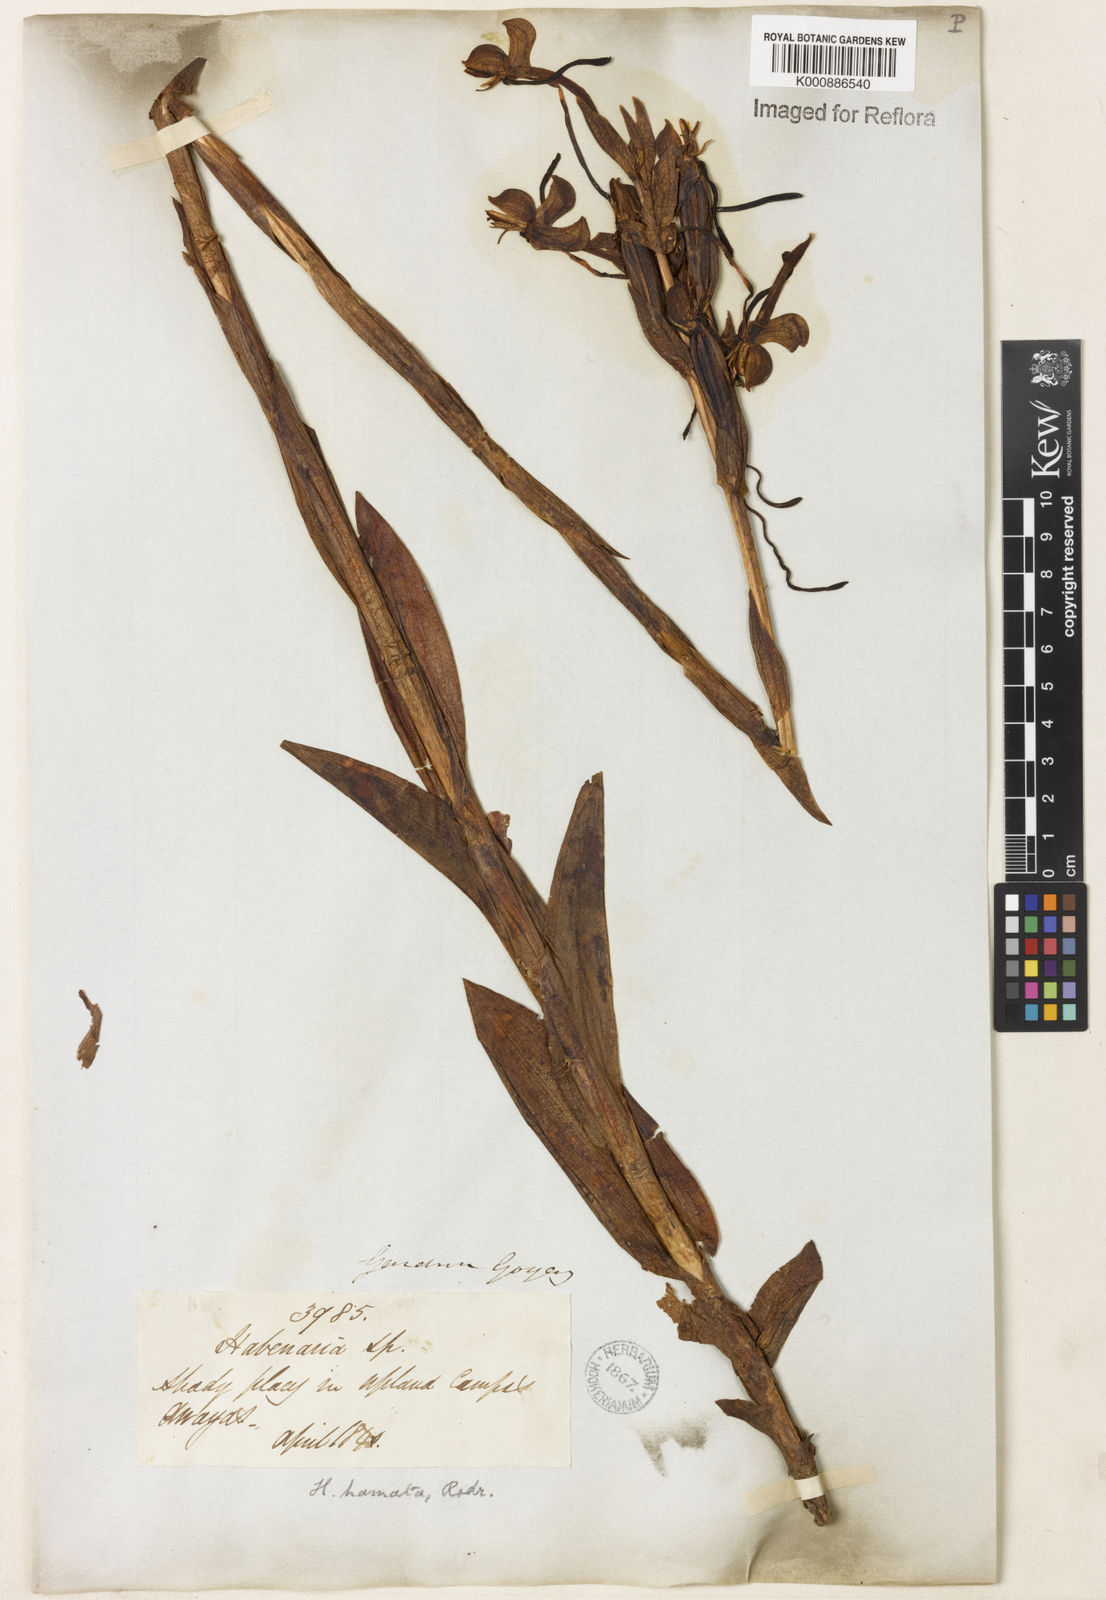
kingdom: Plantae
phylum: Tracheophyta
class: Liliopsida
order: Asparagales
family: Orchidaceae
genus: Habenaria
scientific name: Habenaria hamata
